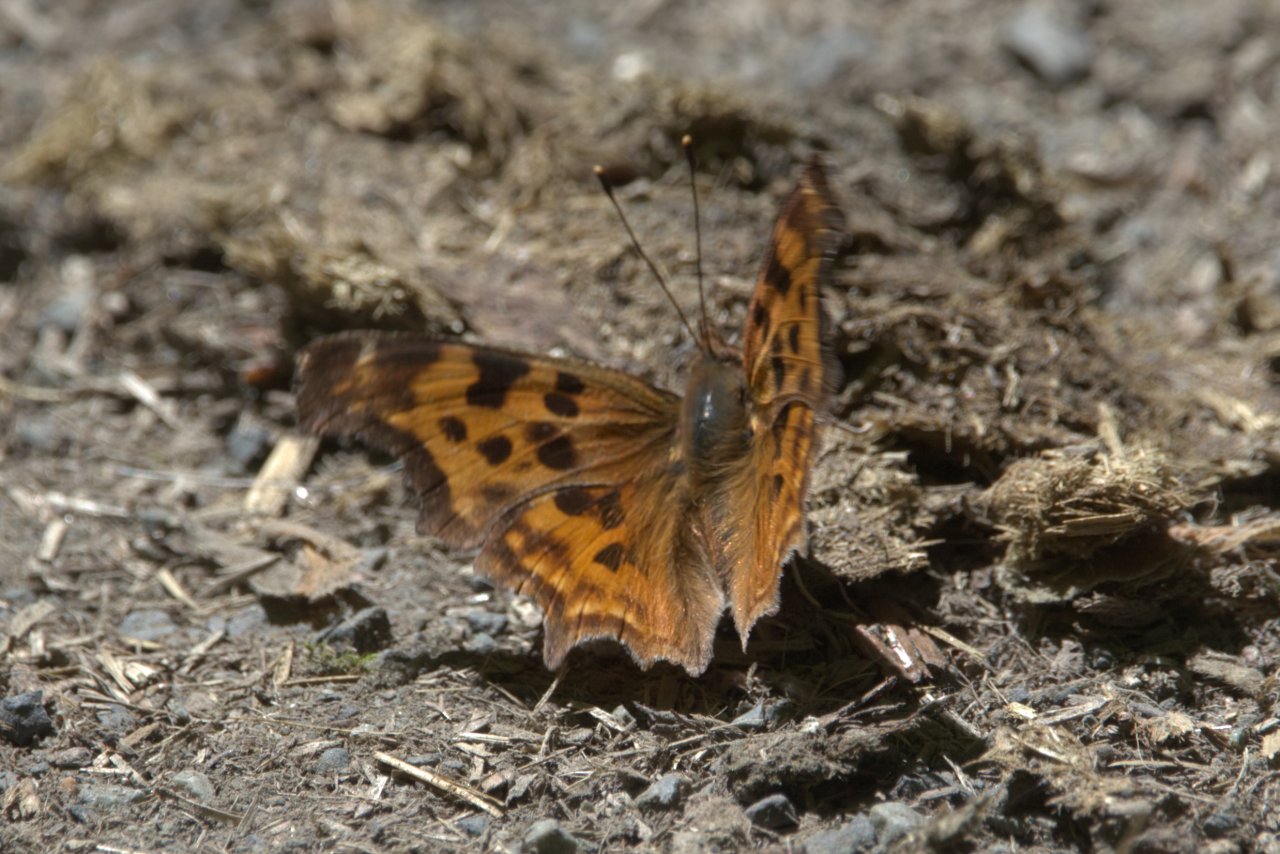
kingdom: Animalia
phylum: Arthropoda
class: Insecta
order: Lepidoptera
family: Nymphalidae
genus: Polygonia
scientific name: Polygonia satyrus
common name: Satyr Comma
